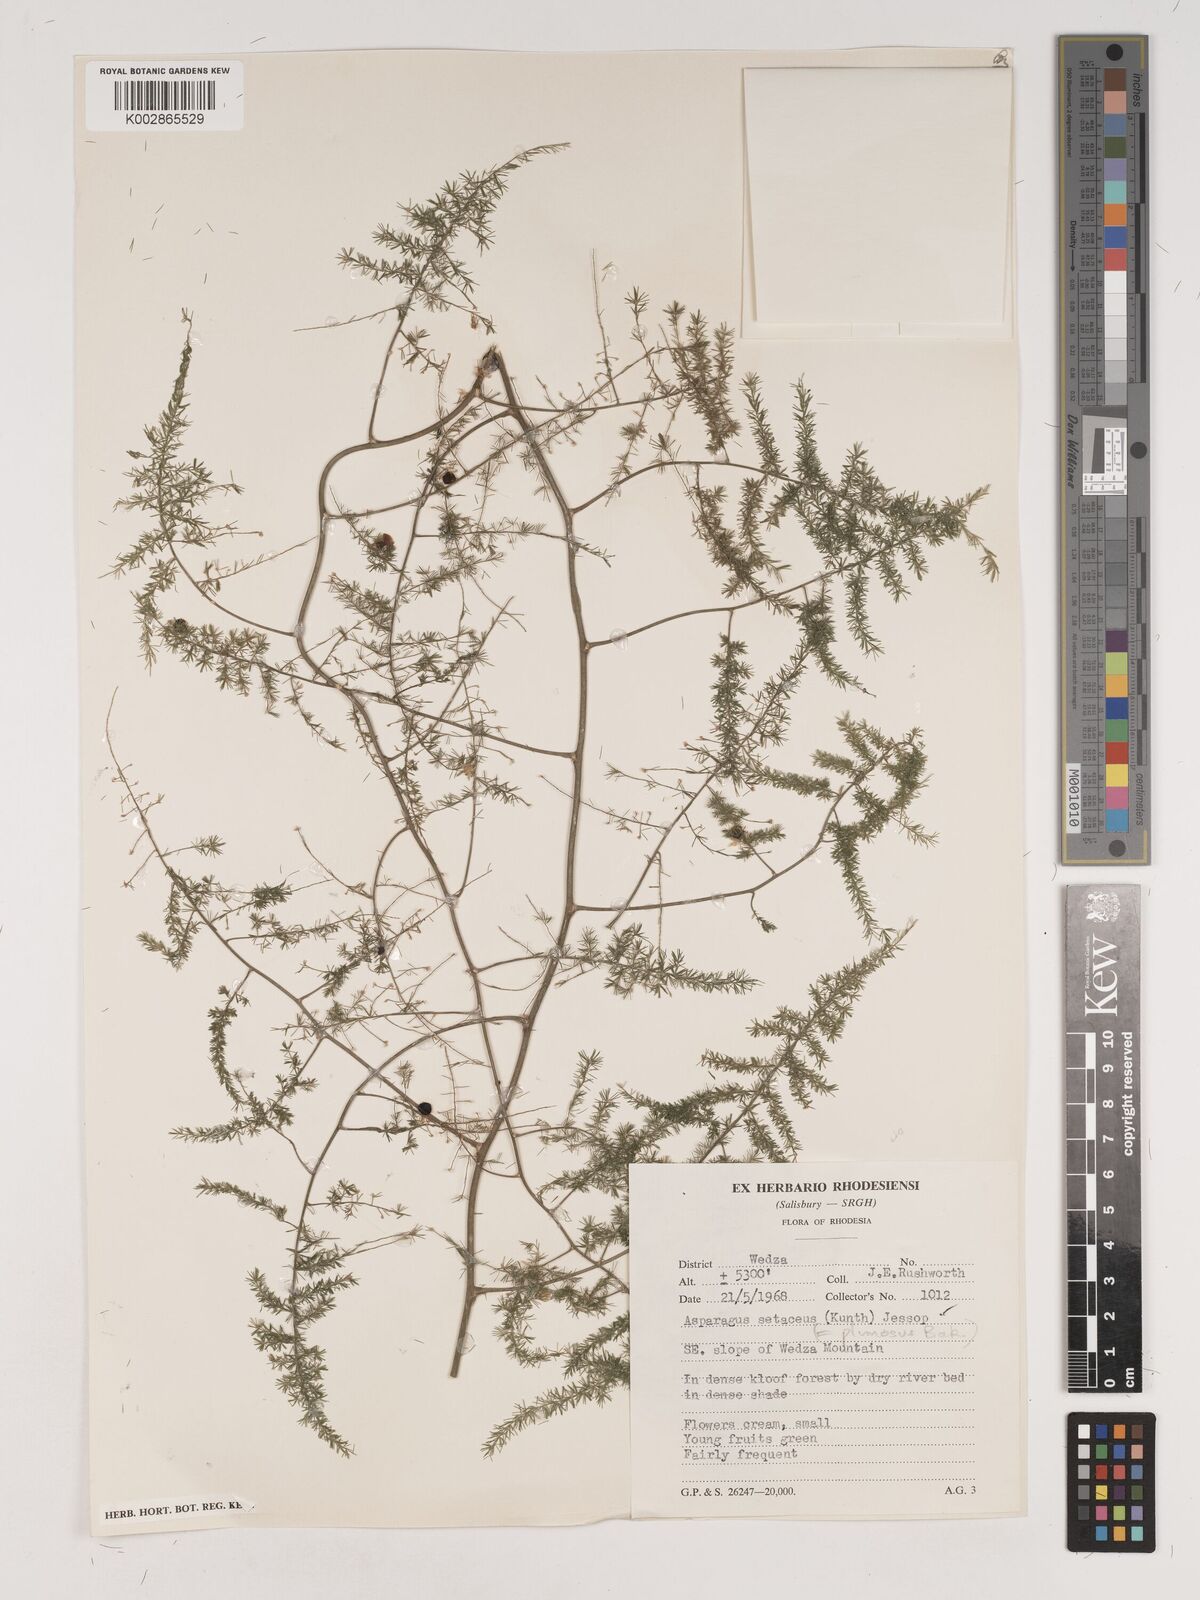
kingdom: Plantae
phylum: Tracheophyta
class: Liliopsida
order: Asparagales
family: Asparagaceae
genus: Asparagus
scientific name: Asparagus setaceus
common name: Common asparagus fern
